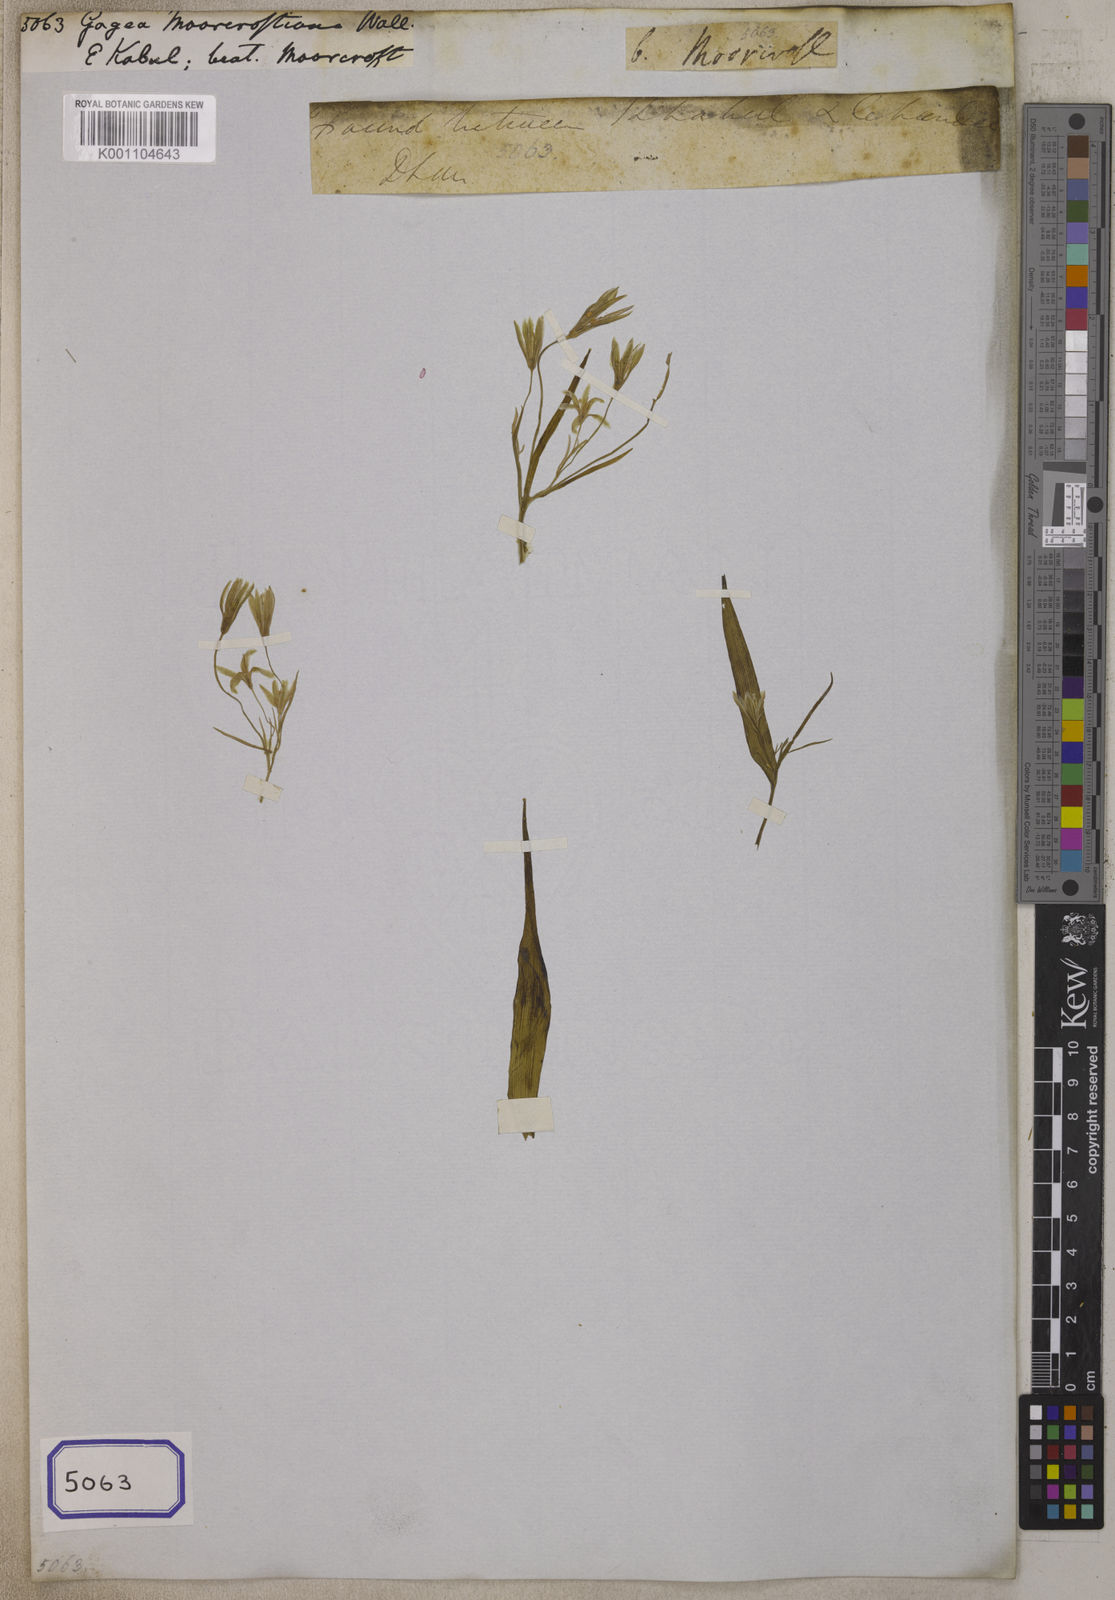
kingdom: Plantae
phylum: Tracheophyta
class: Liliopsida
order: Liliales
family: Liliaceae
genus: Gagea
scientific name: Gagea lutea
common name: Yellow star-of-bethlehem
